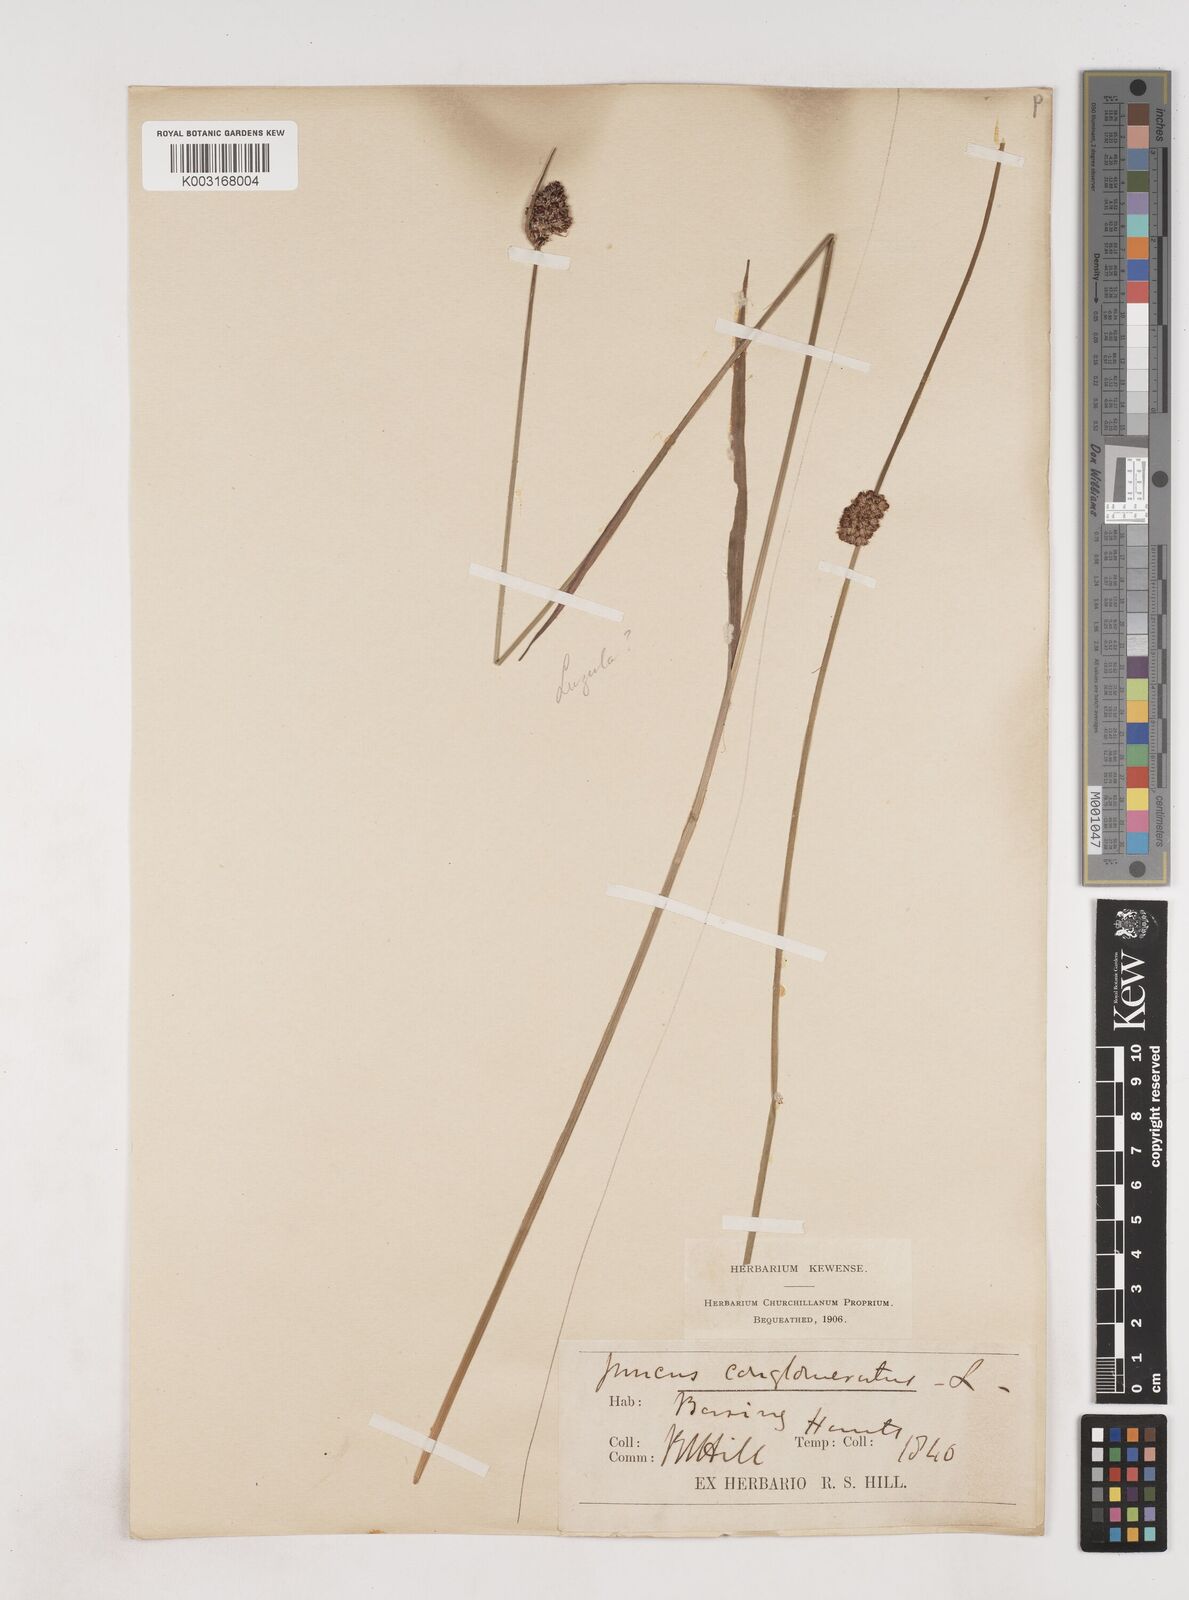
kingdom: Plantae
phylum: Tracheophyta
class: Liliopsida
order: Poales
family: Juncaceae
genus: Juncus
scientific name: Juncus conglomeratus
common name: Compact rush
